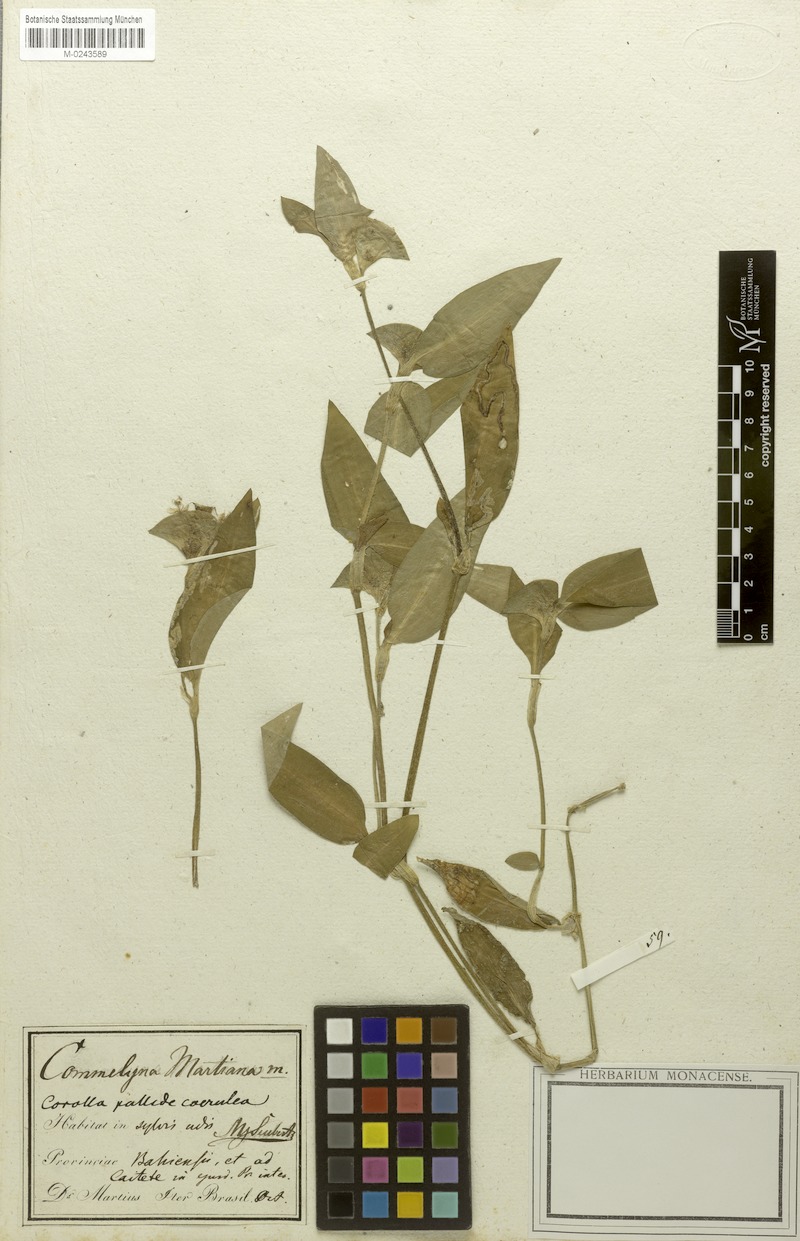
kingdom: Plantae
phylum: Tracheophyta
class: Liliopsida
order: Commelinales
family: Commelinaceae
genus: Commelina
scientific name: Commelina erecta
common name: Blousel blommetjie
